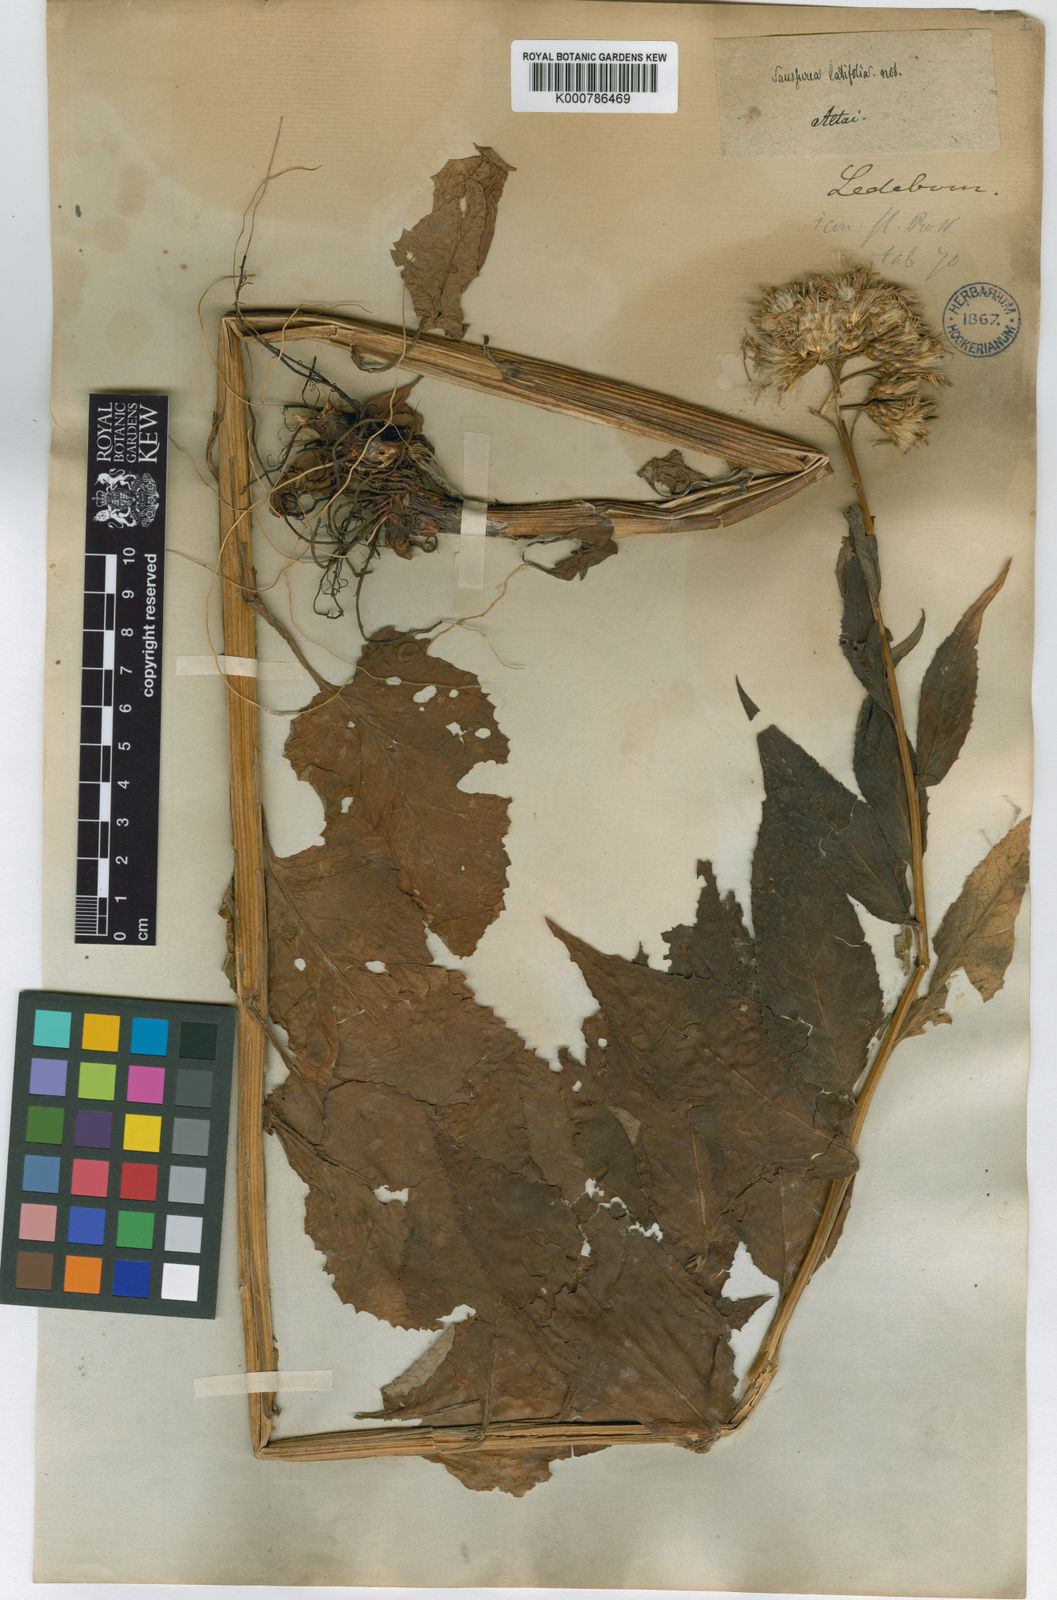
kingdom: Plantae
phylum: Tracheophyta
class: Magnoliopsida
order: Asterales
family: Asteraceae
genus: Saussurea
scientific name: Saussurea latifolia
